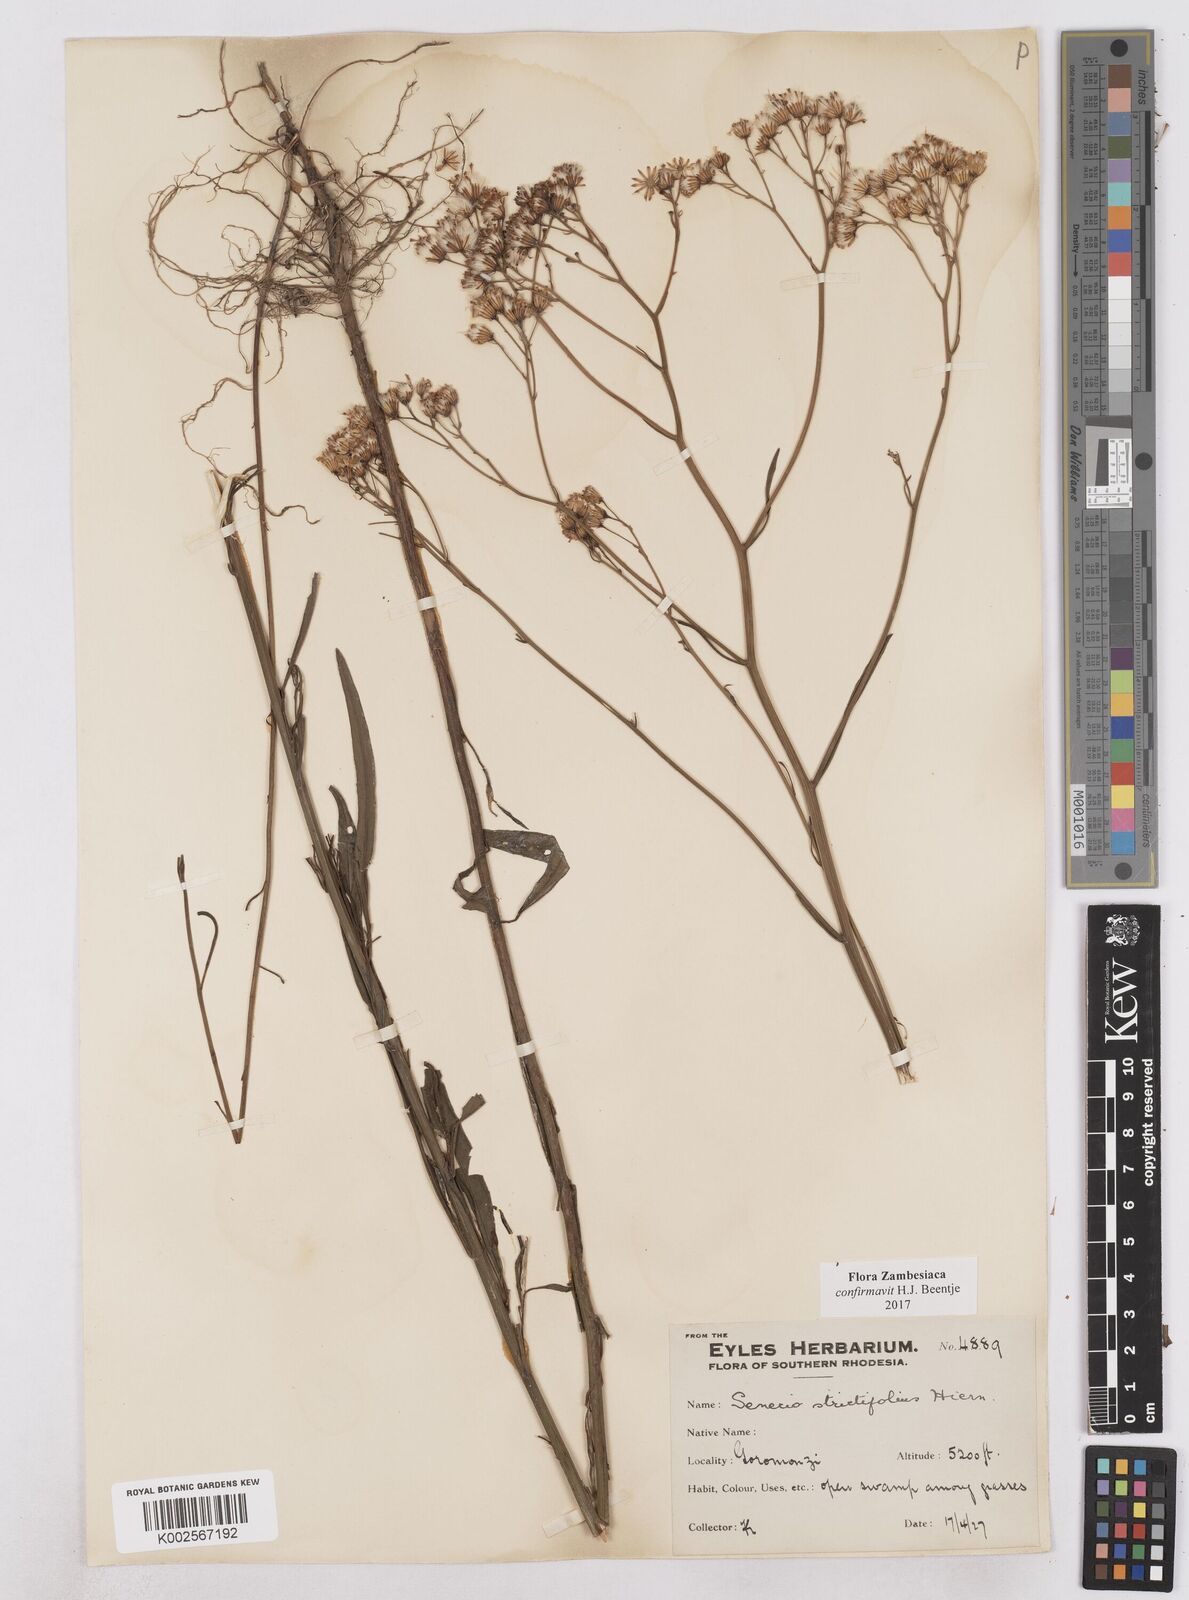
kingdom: Plantae
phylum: Tracheophyta
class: Magnoliopsida
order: Asterales
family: Asteraceae
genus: Senecio
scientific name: Senecio strictifolius
